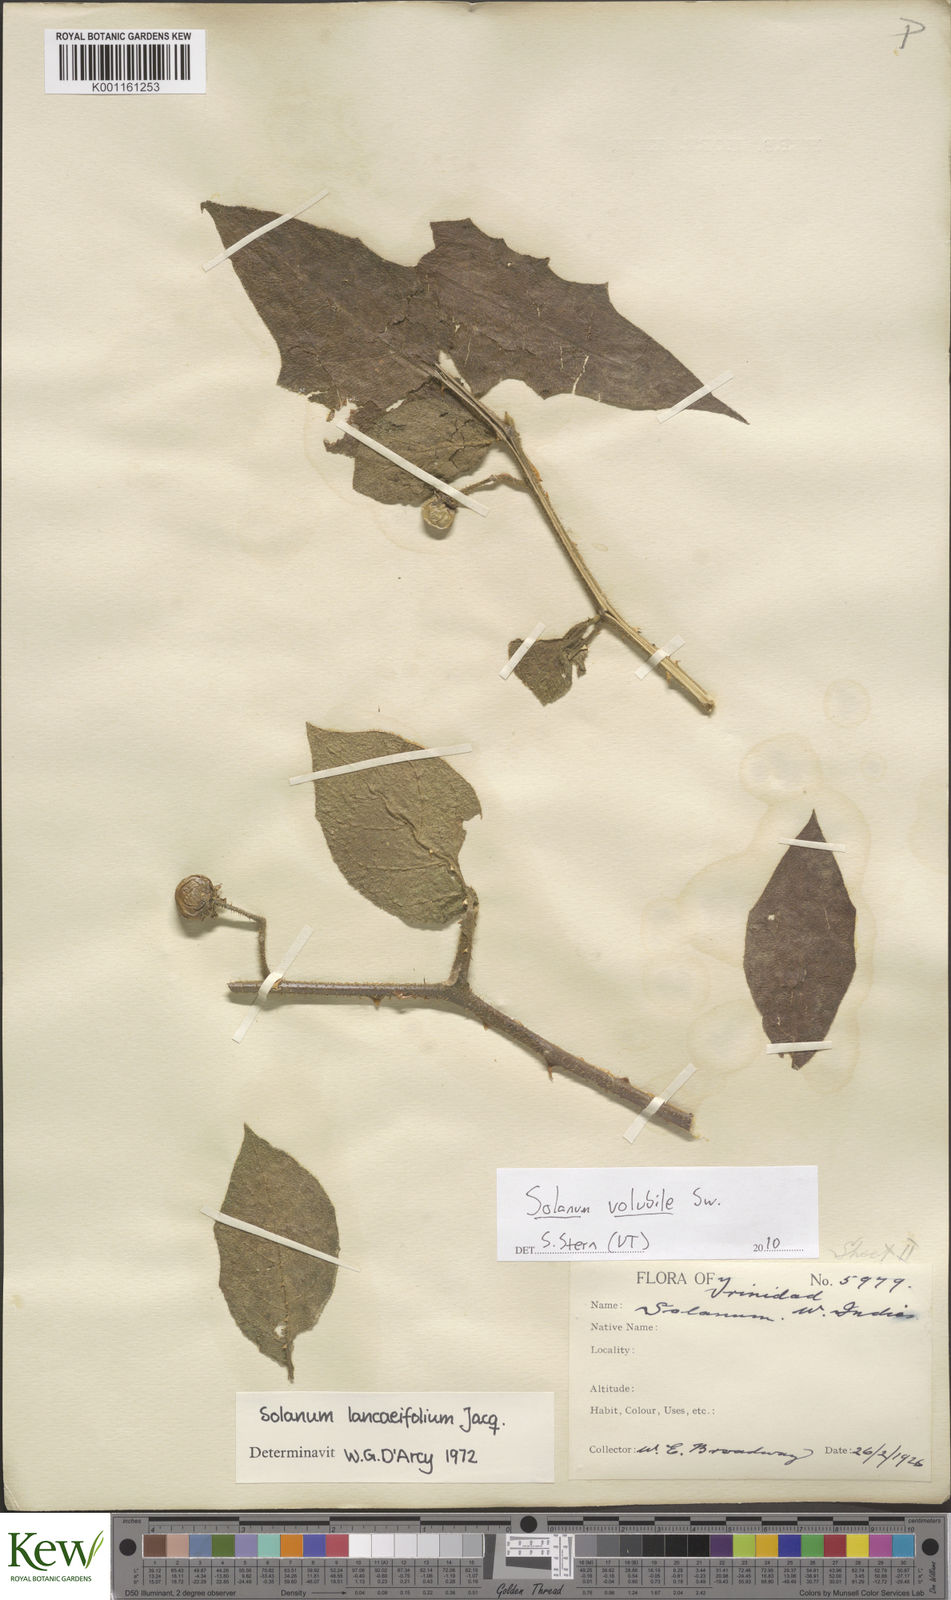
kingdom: Plantae
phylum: Tracheophyta
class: Magnoliopsida
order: Solanales
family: Solanaceae
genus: Solanum
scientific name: Solanum volubile
